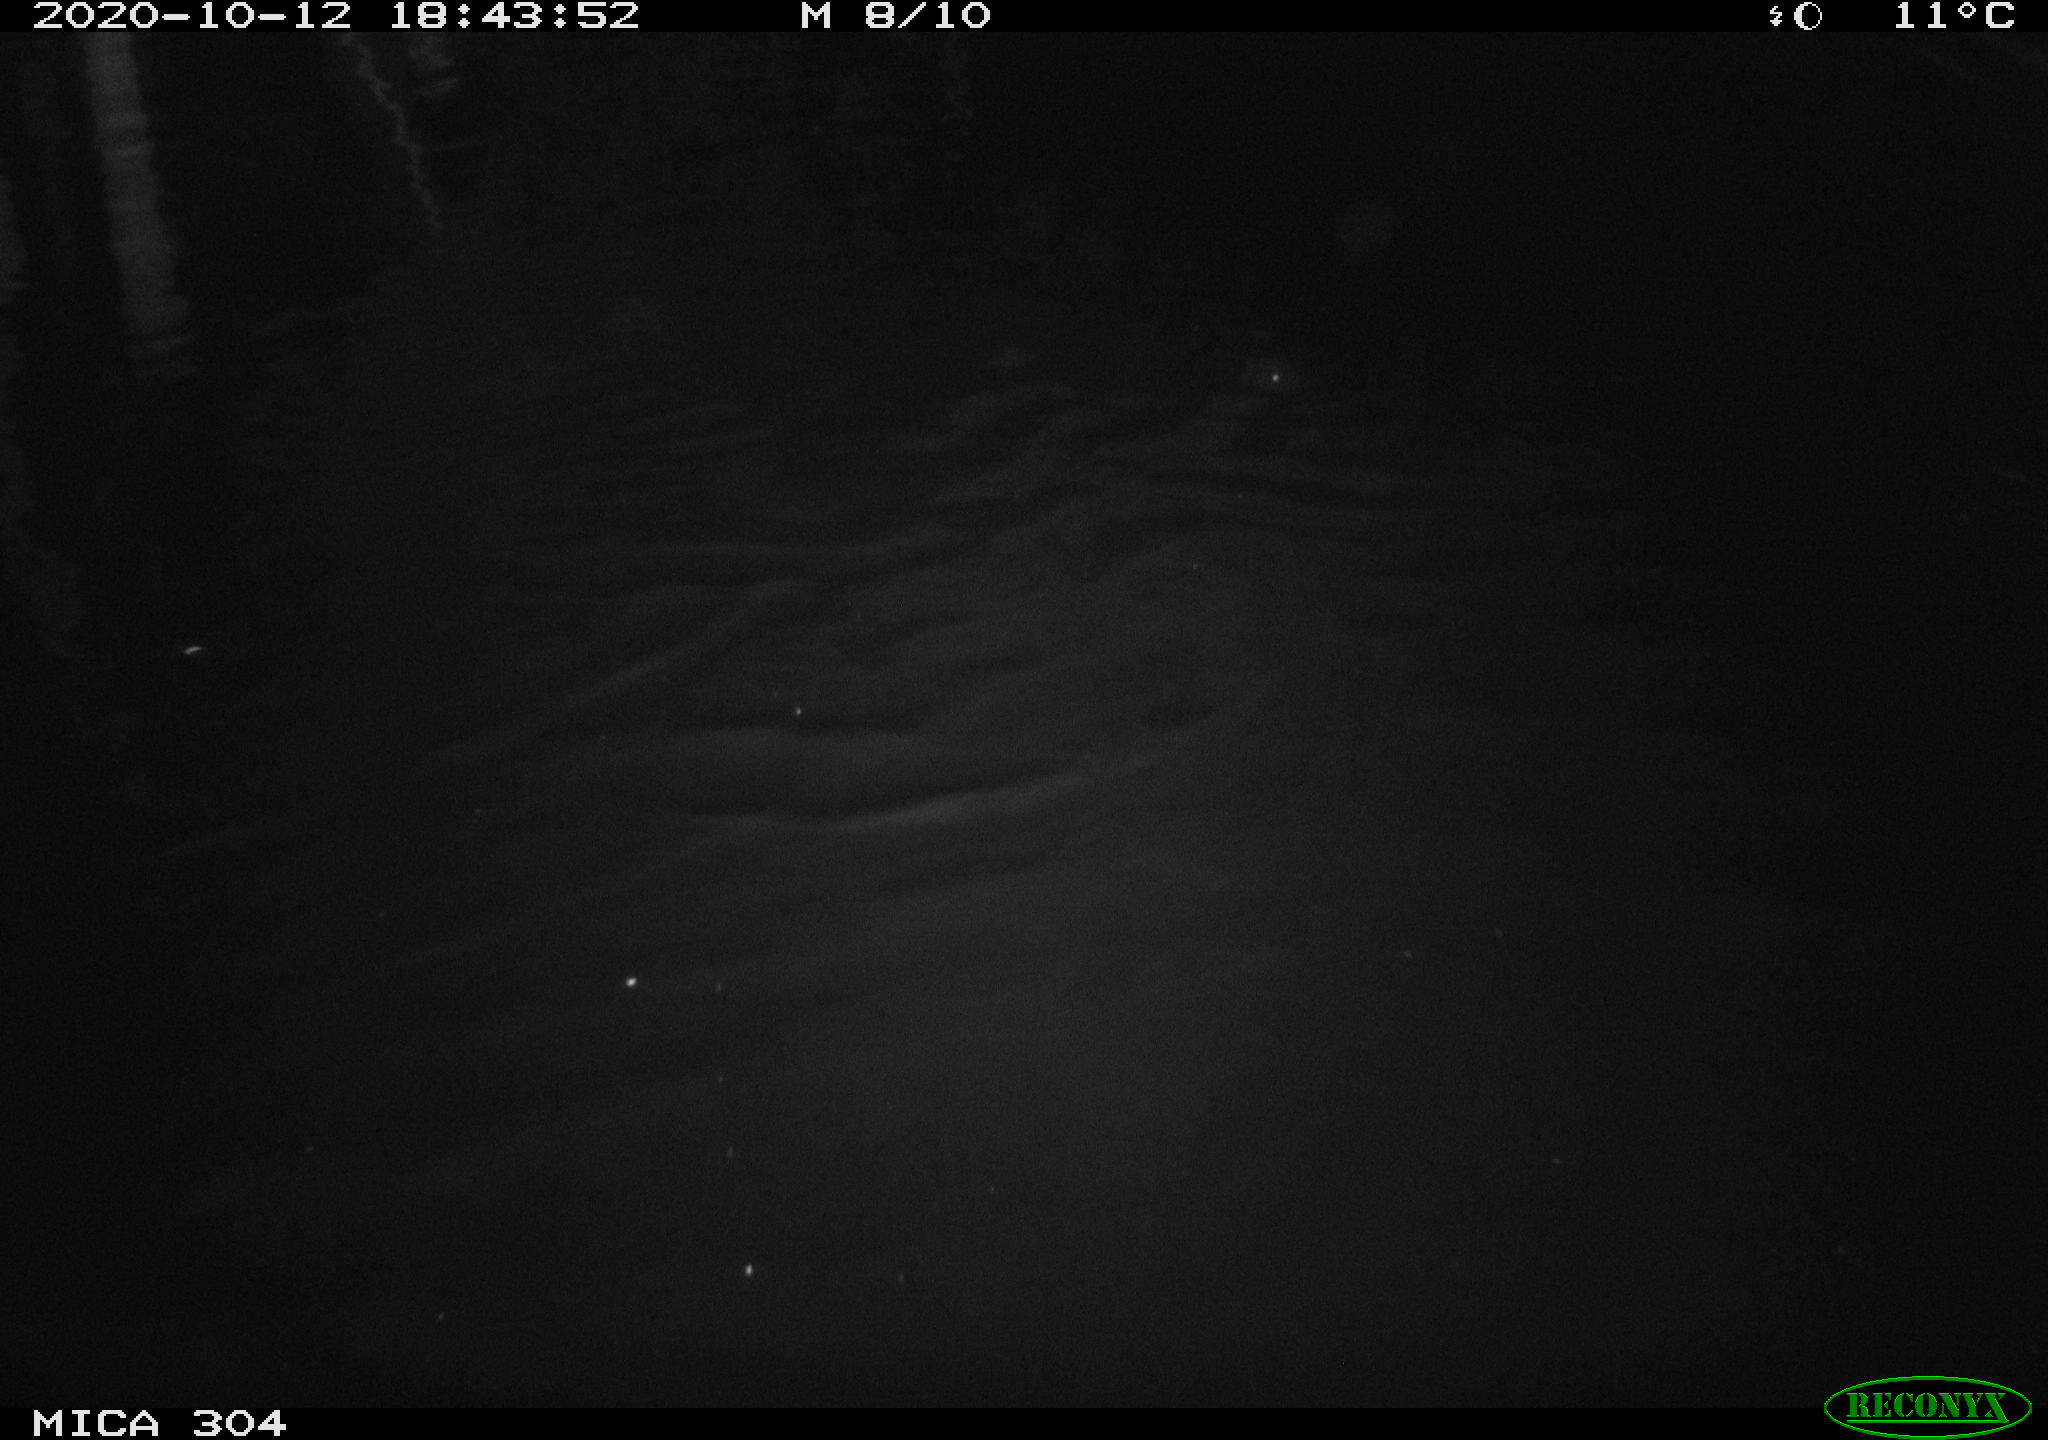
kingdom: Animalia
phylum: Chordata
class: Mammalia
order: Rodentia
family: Cricetidae
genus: Ondatra
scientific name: Ondatra zibethicus
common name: Muskrat
